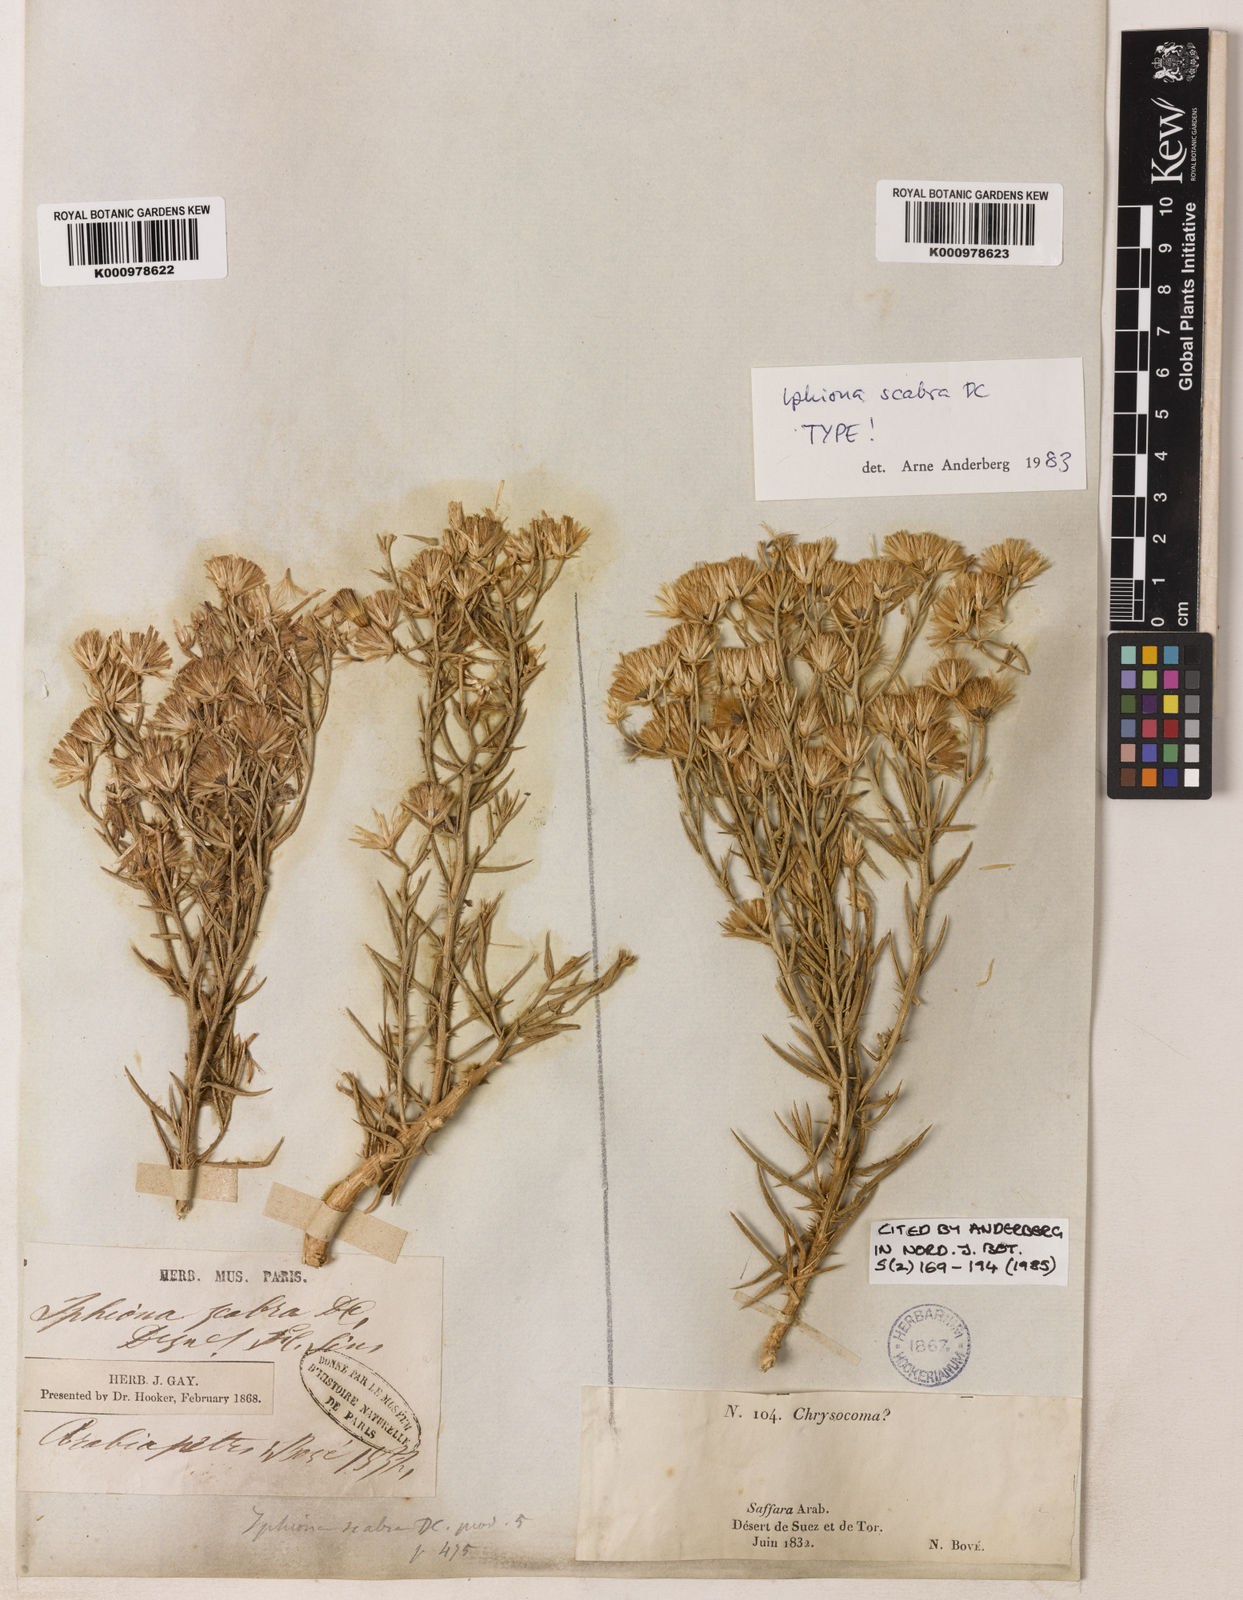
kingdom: Plantae
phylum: Tracheophyta
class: Magnoliopsida
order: Asterales
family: Asteraceae
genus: Iphiona
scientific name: Iphiona
